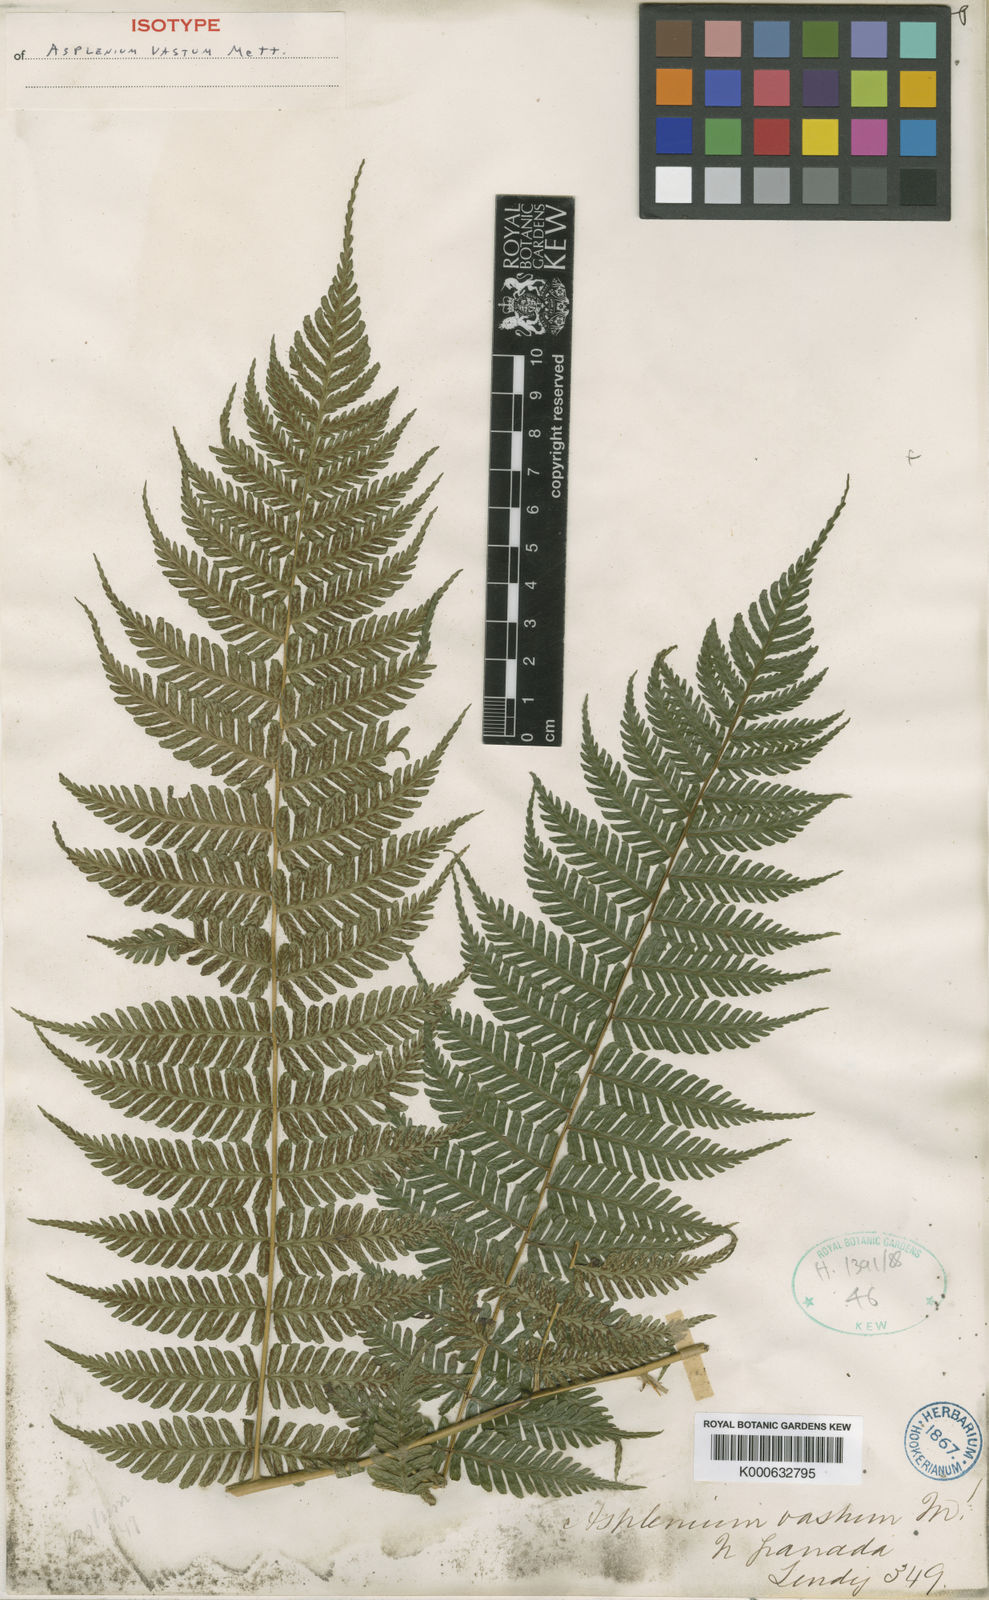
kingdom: Plantae
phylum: Tracheophyta
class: Polypodiopsida
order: Polypodiales
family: Athyriaceae
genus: Diplazium
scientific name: Diplazium vastum
